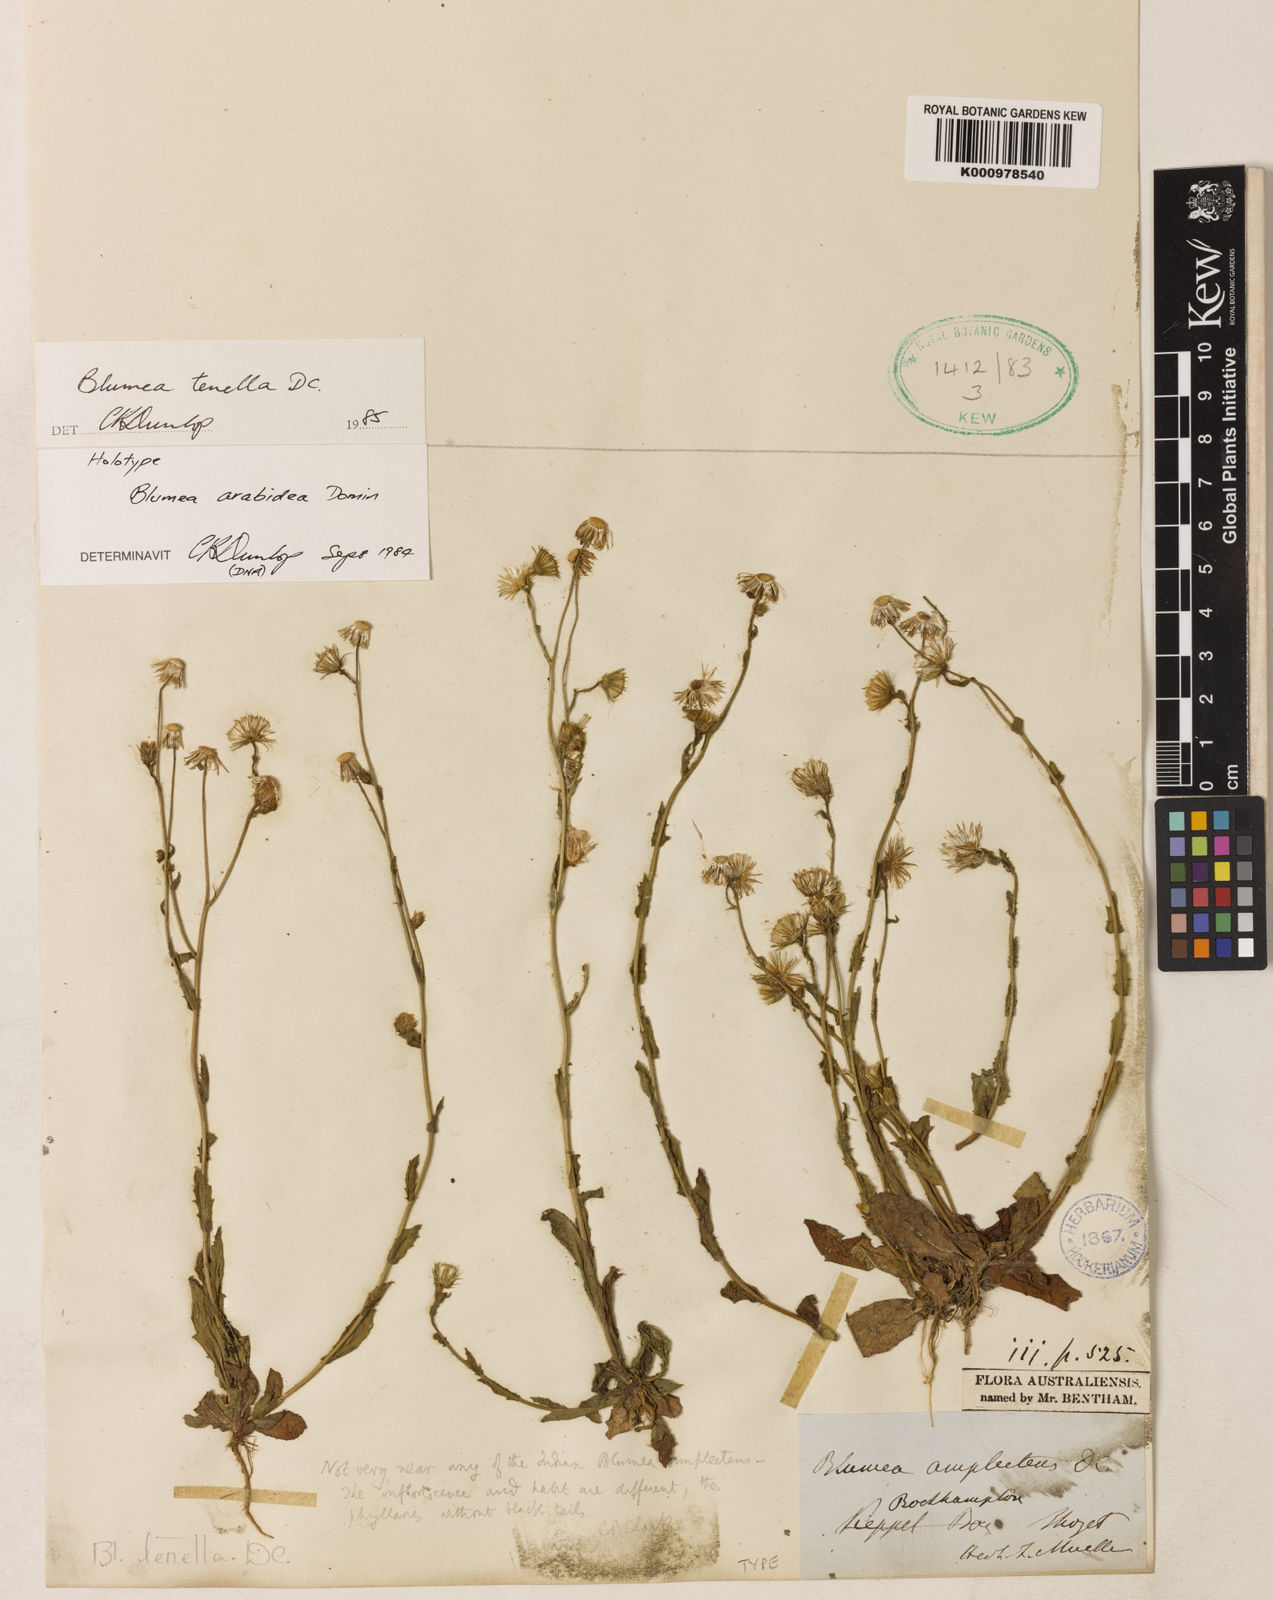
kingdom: Plantae
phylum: Tracheophyta
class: Magnoliopsida
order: Asterales
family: Asteraceae
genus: Blumea
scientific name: Blumea tenella
